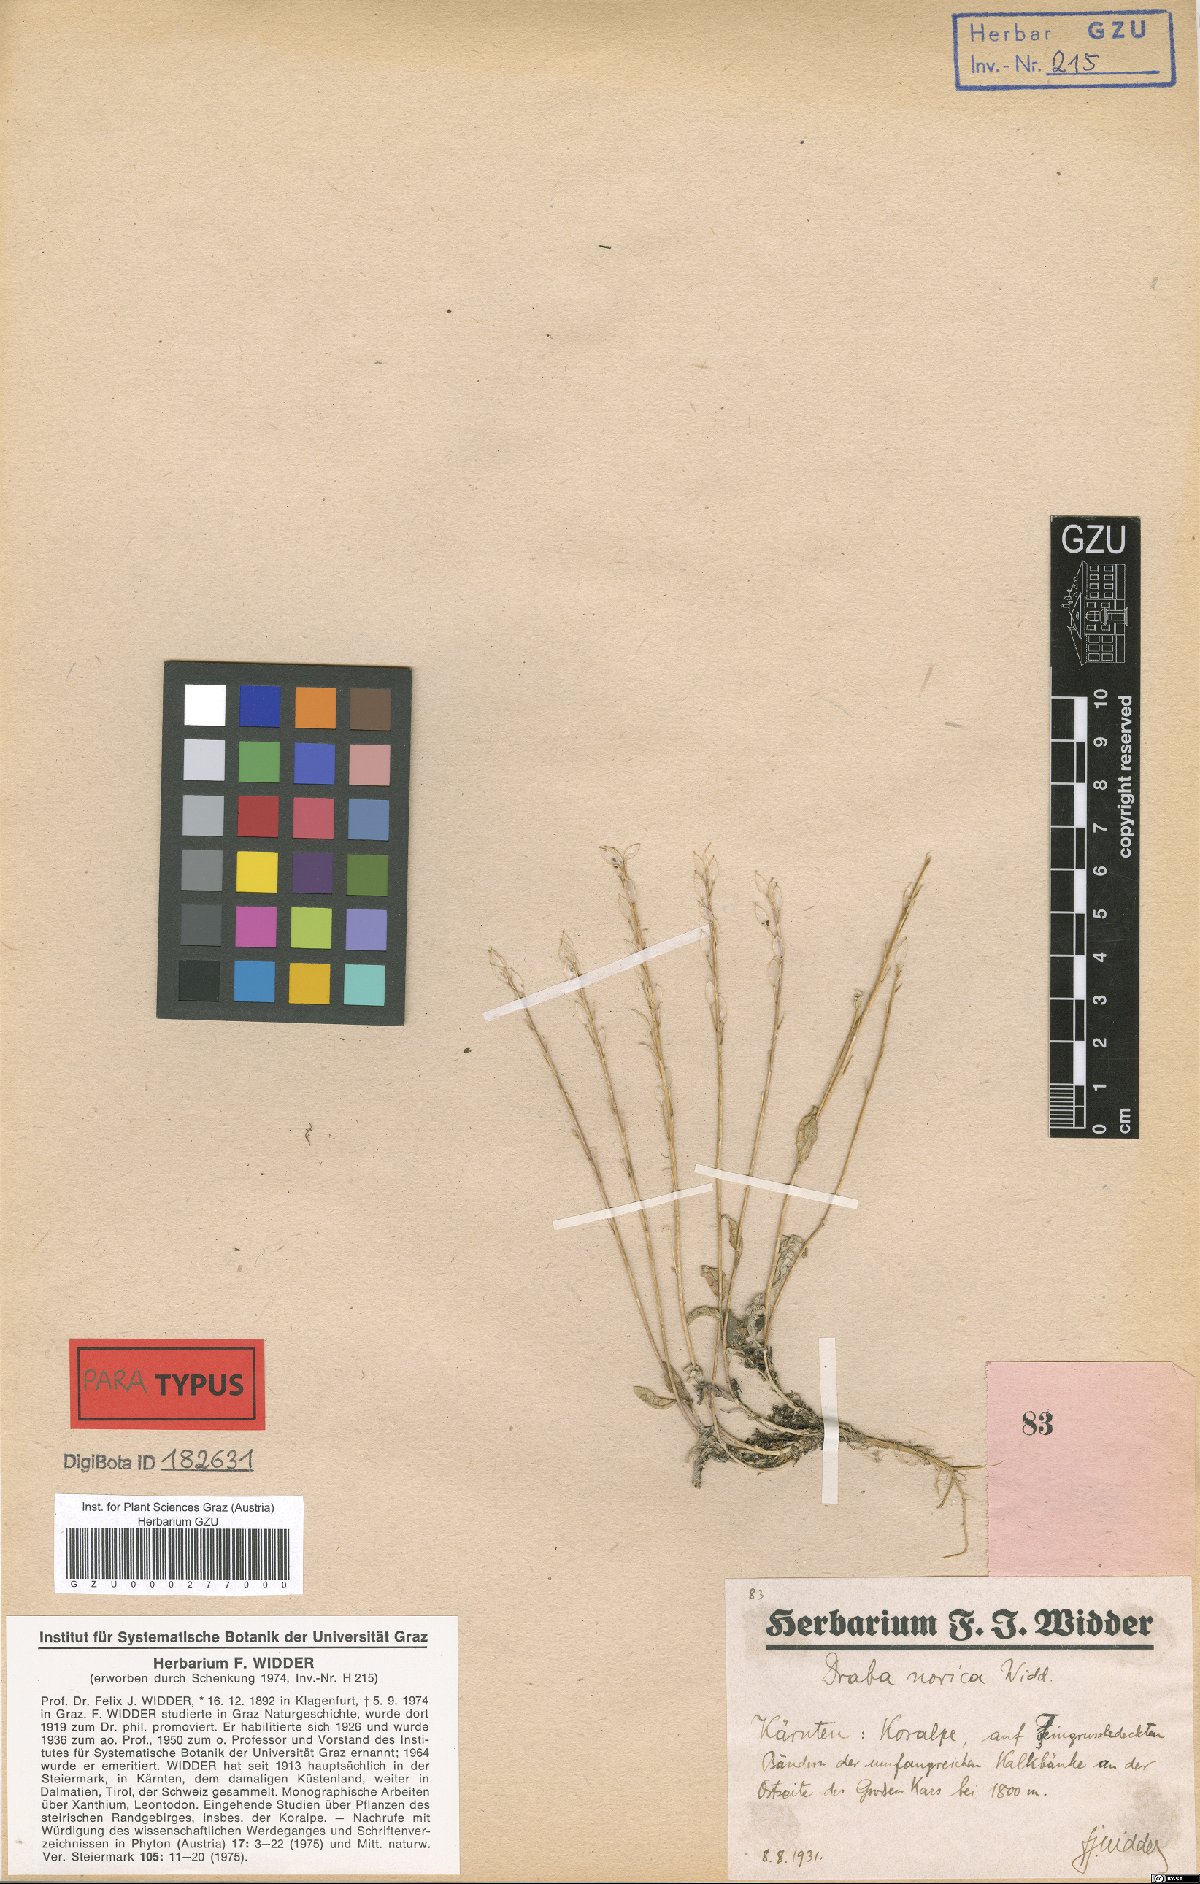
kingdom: Plantae
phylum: Tracheophyta
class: Magnoliopsida
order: Brassicales
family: Brassicaceae
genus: Draba
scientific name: Draba pacheri
